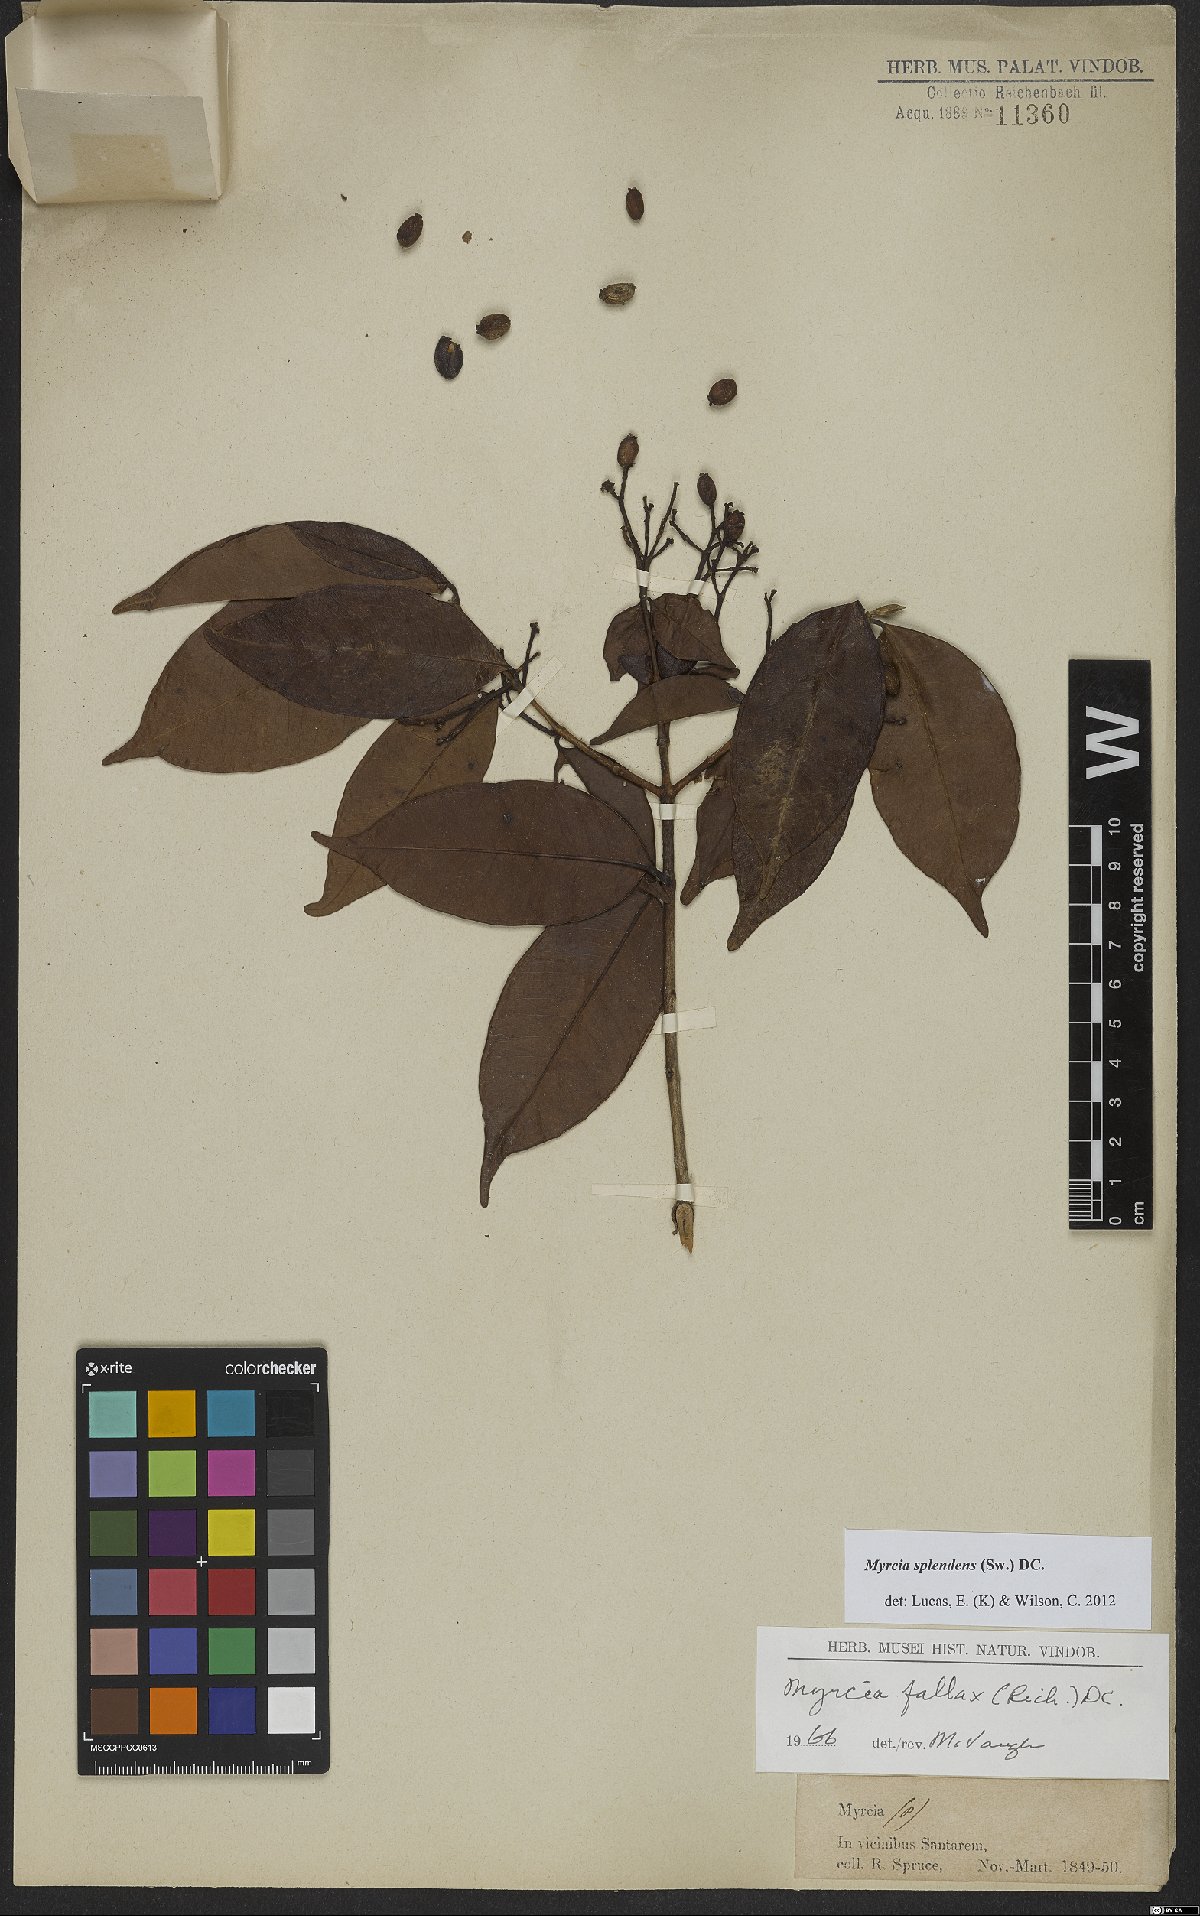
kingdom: Plantae
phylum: Tracheophyta
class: Magnoliopsida
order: Myrtales
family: Myrtaceae
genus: Myrcia
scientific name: Myrcia splendens
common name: Surinam cherry
